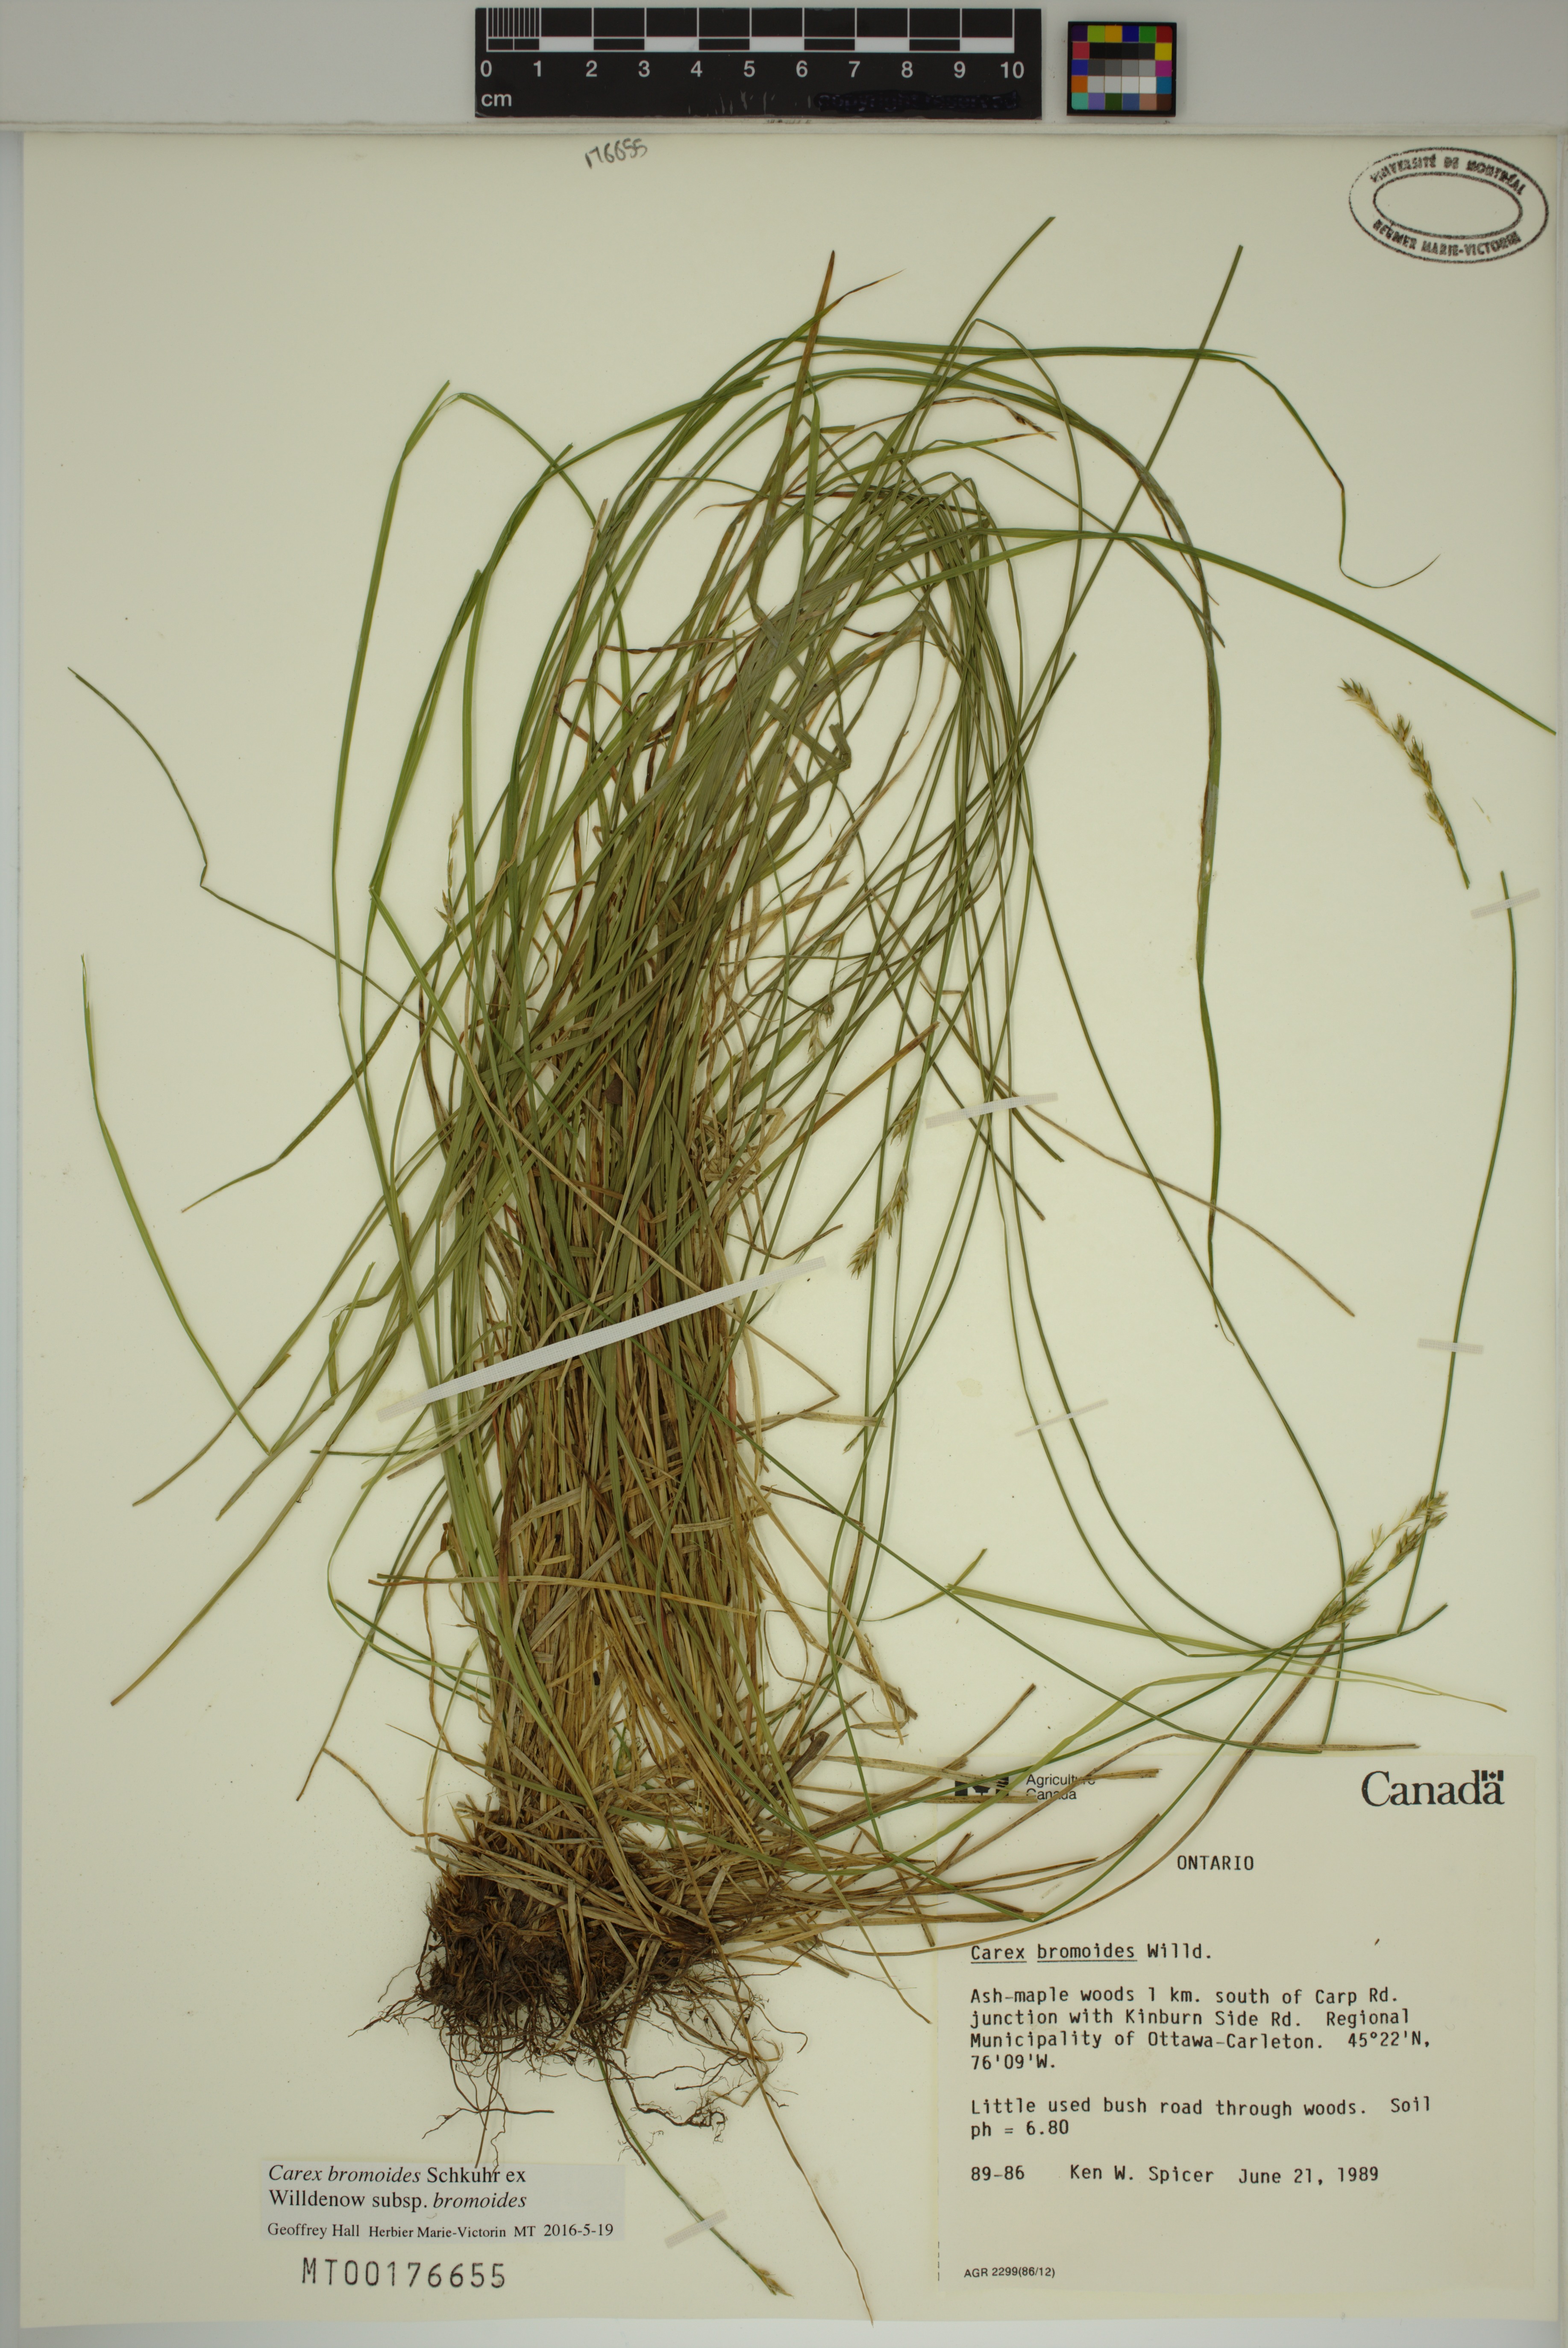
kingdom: Plantae
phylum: Tracheophyta
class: Liliopsida
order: Poales
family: Cyperaceae
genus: Carex
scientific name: Carex bromoides
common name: Brome hummock sedge
